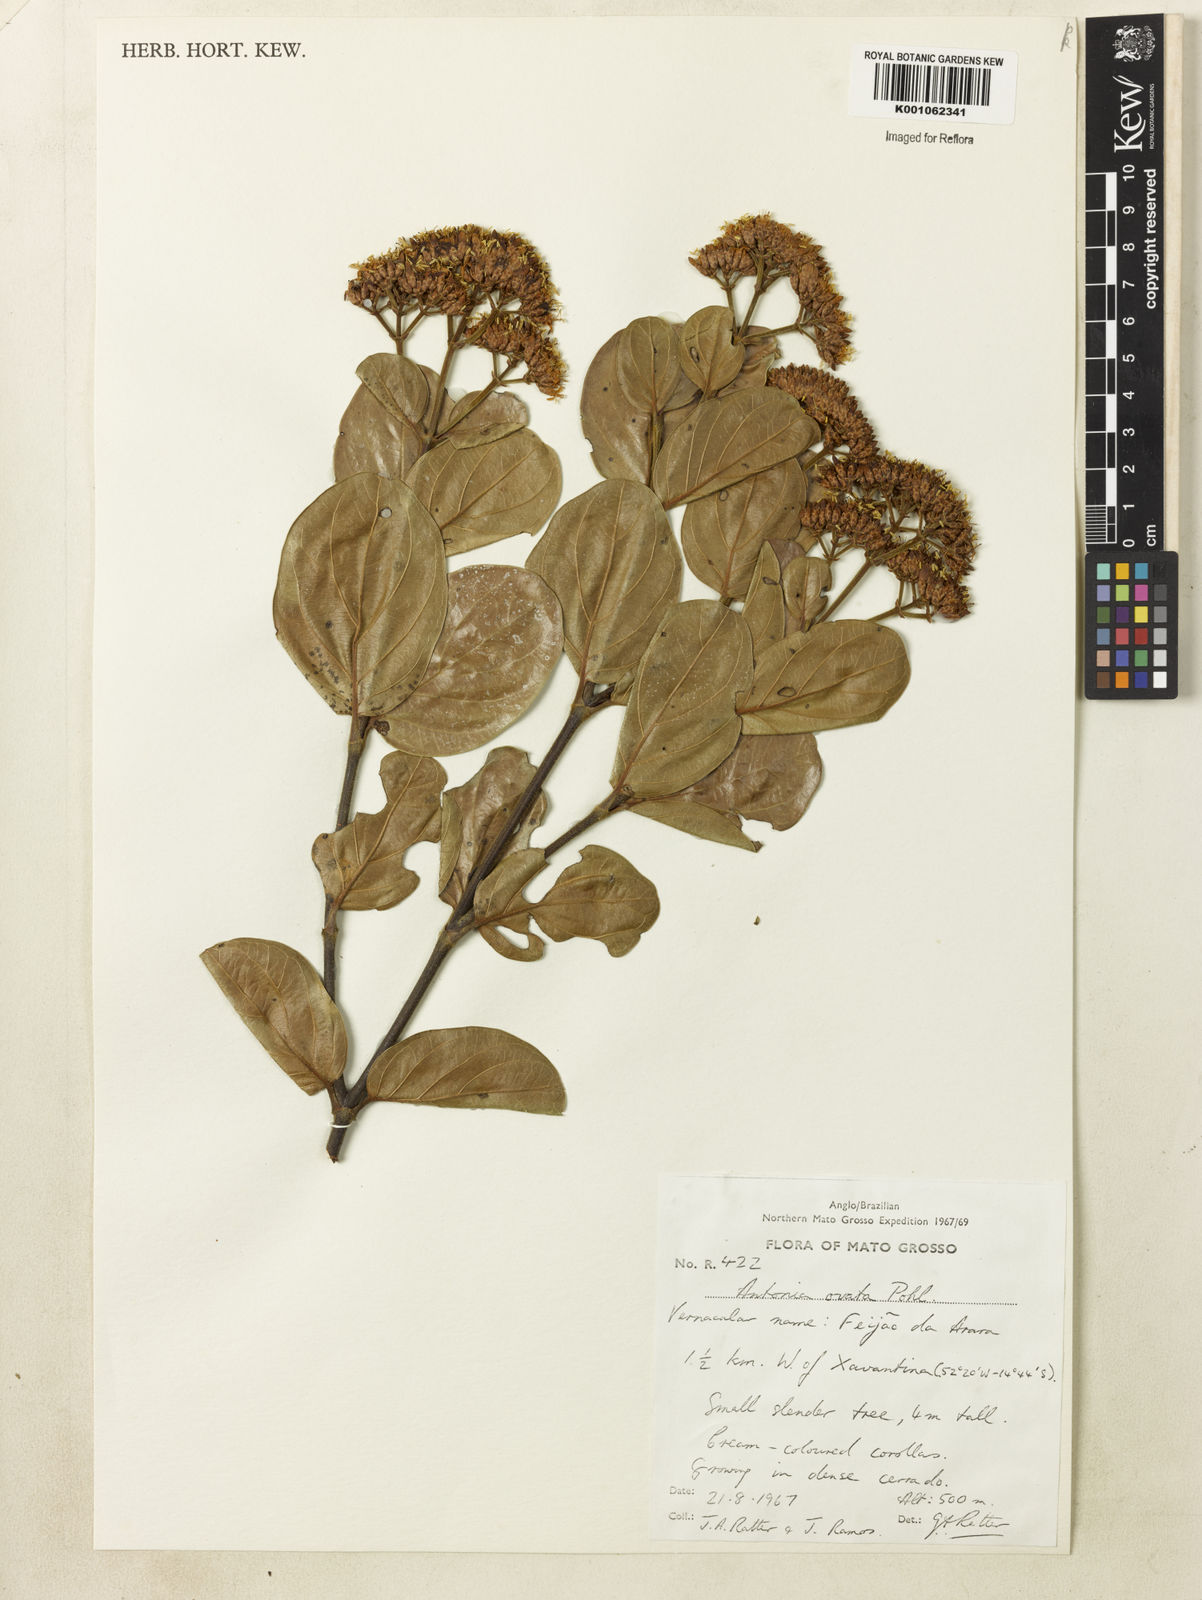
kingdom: Plantae
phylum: Tracheophyta
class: Magnoliopsida
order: Gentianales
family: Loganiaceae
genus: Antonia
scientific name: Antonia ovata
